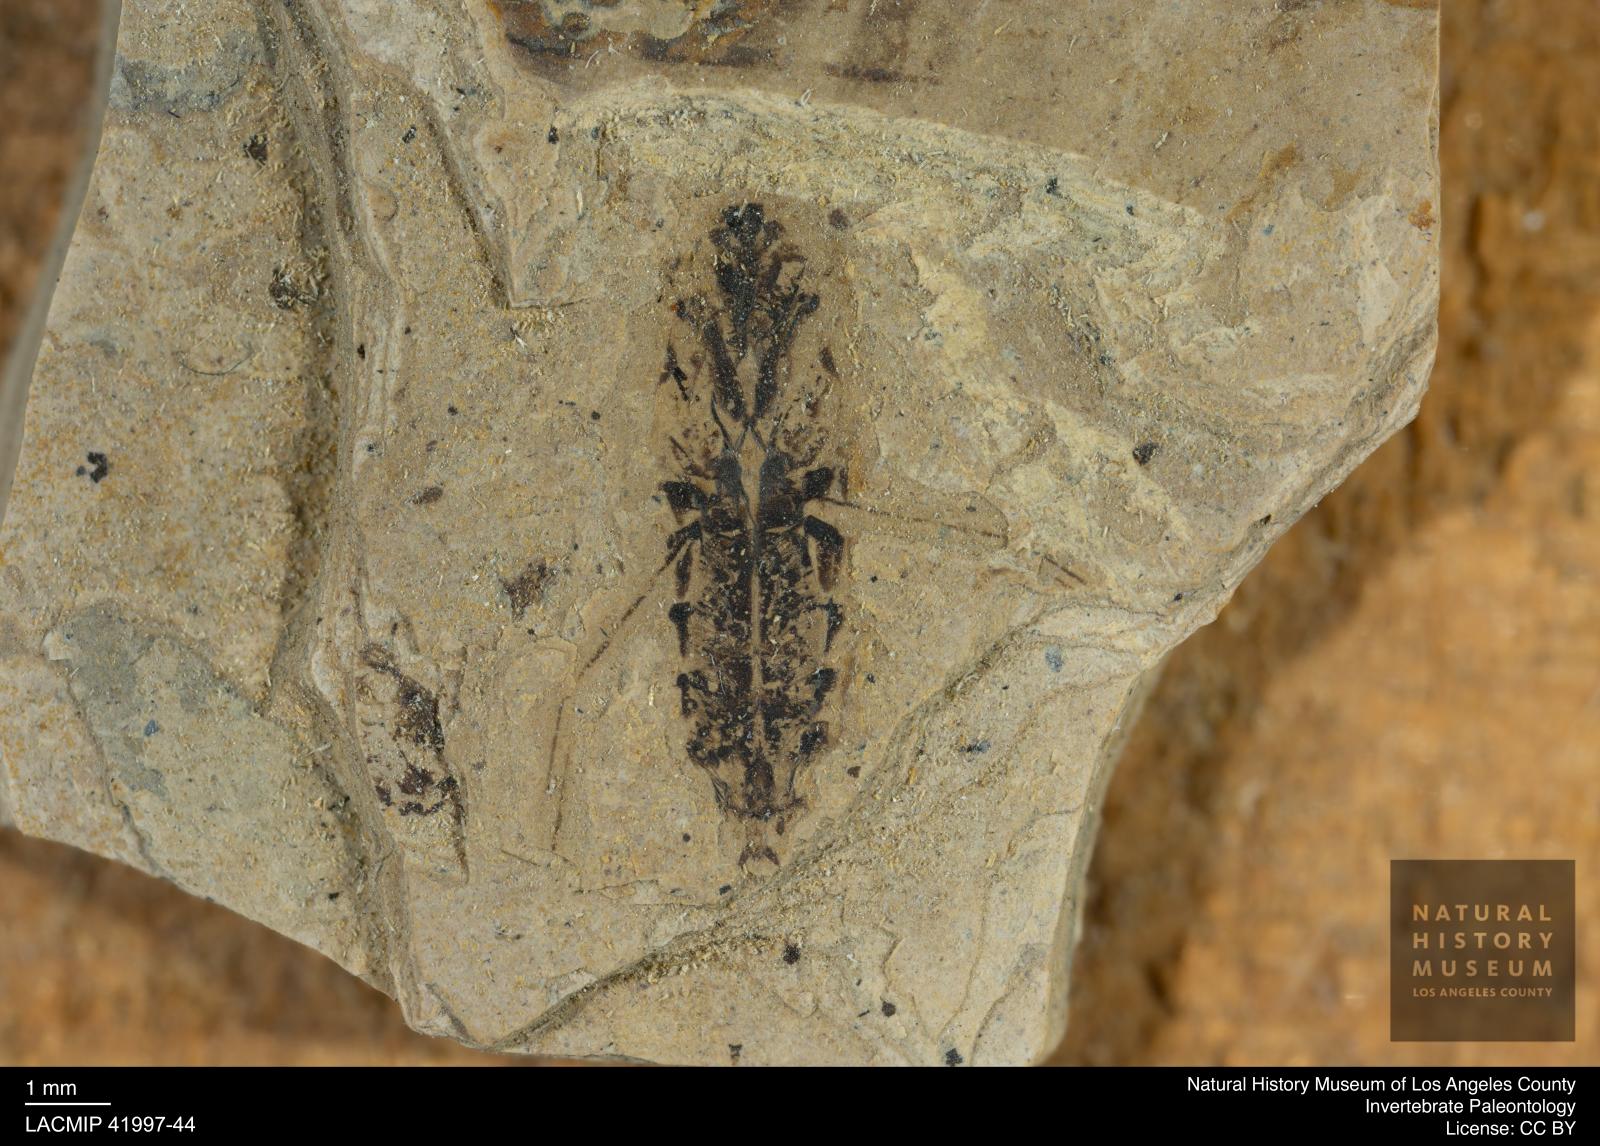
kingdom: Animalia
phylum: Arthropoda
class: Insecta
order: Hemiptera
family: Notonectidae
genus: Anisops
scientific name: Anisops Notonecta deichmuelleri
